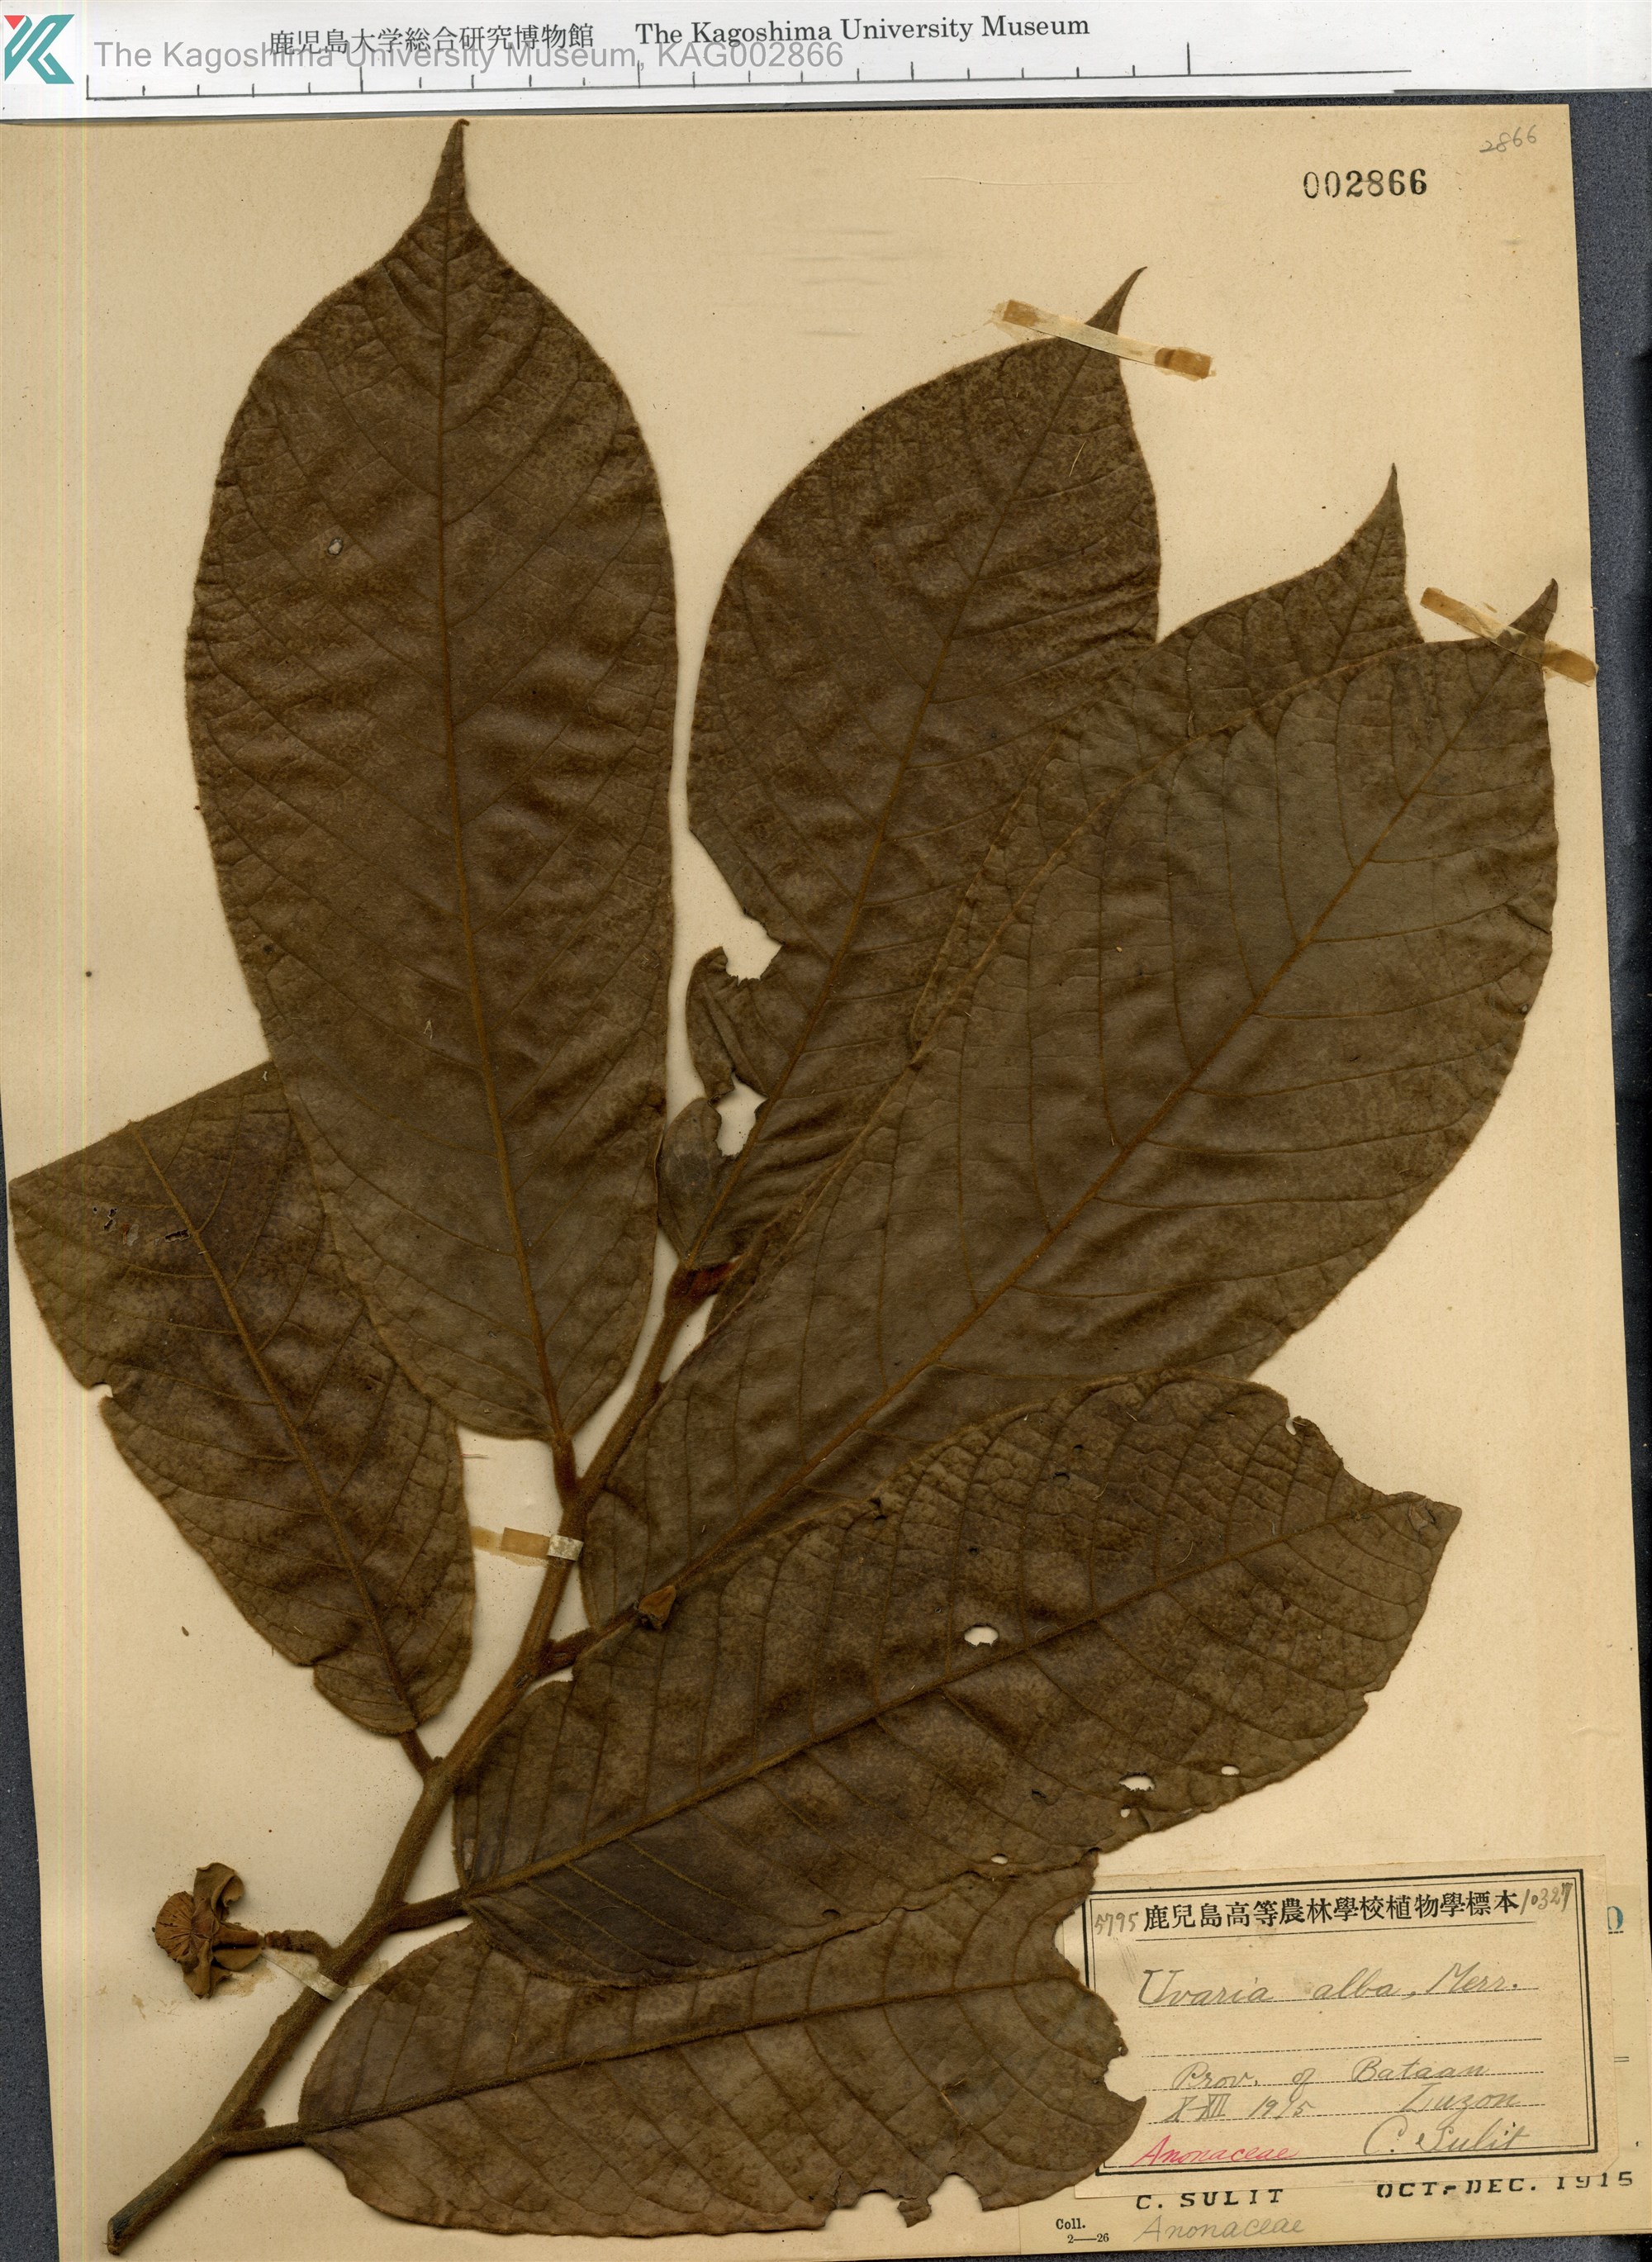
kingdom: Plantae
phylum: Tracheophyta
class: Magnoliopsida
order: Magnoliales
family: Annonaceae
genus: Uvaria
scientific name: Uvaria alba
